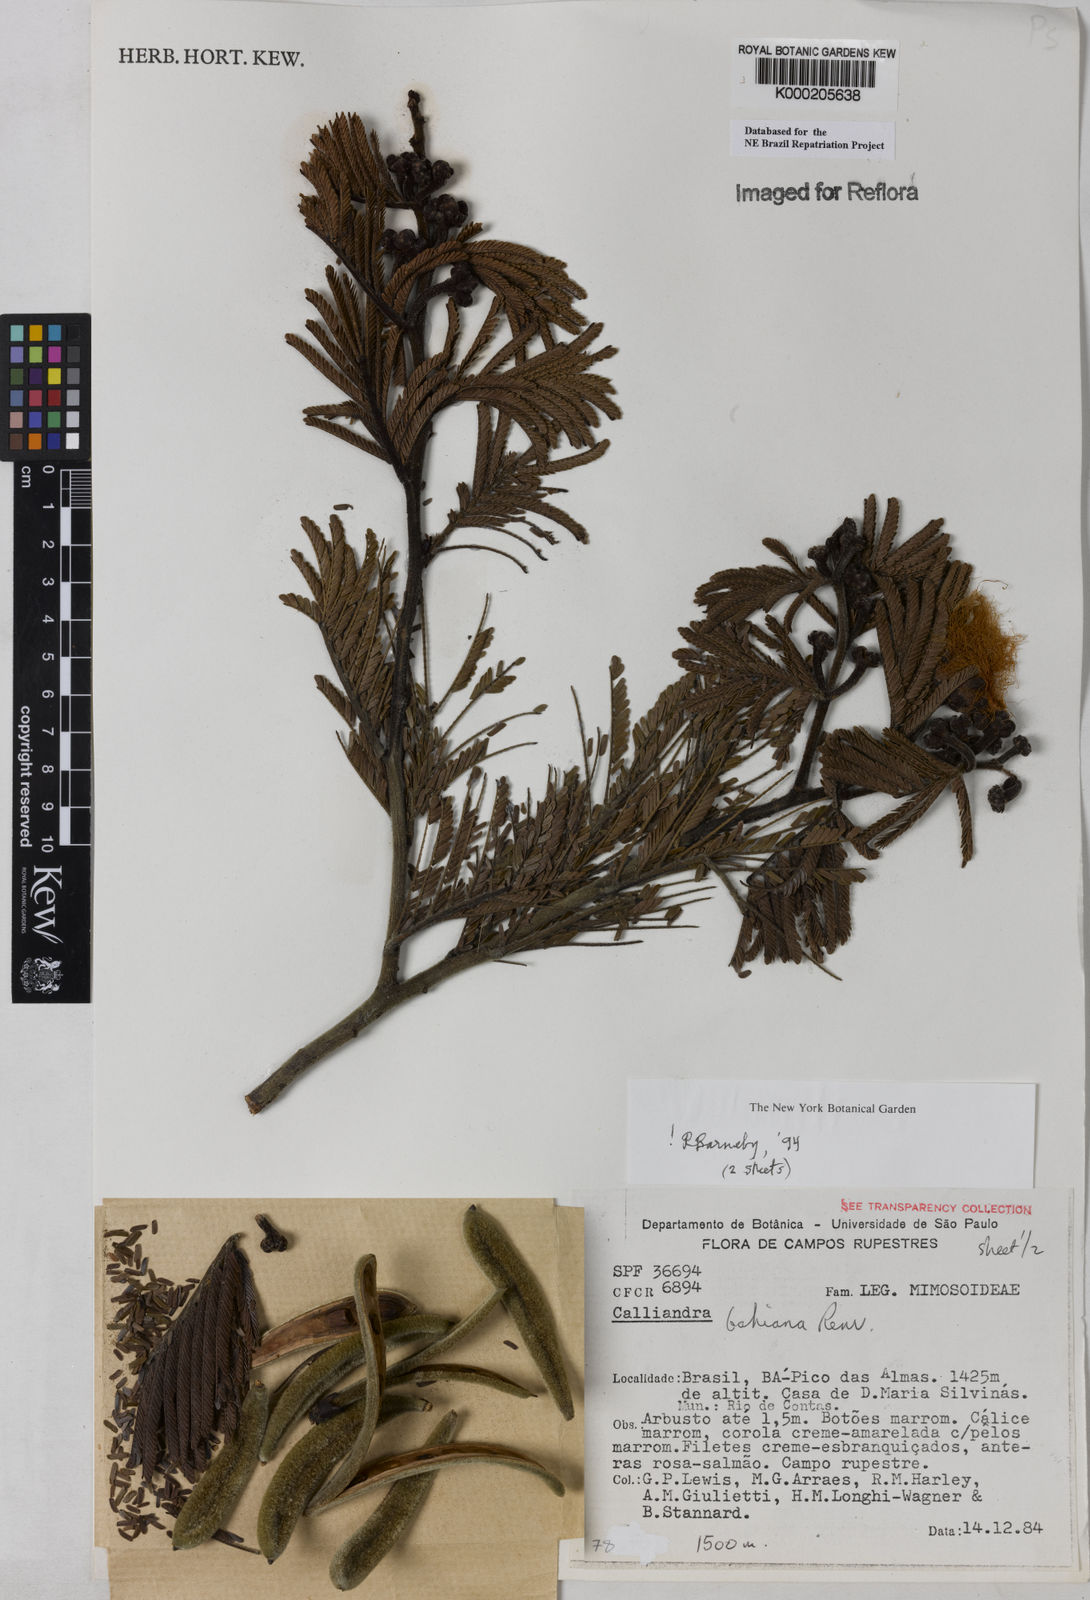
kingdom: Plantae
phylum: Tracheophyta
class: Magnoliopsida
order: Fabales
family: Fabaceae
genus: Calliandra
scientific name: Calliandra bahiana
